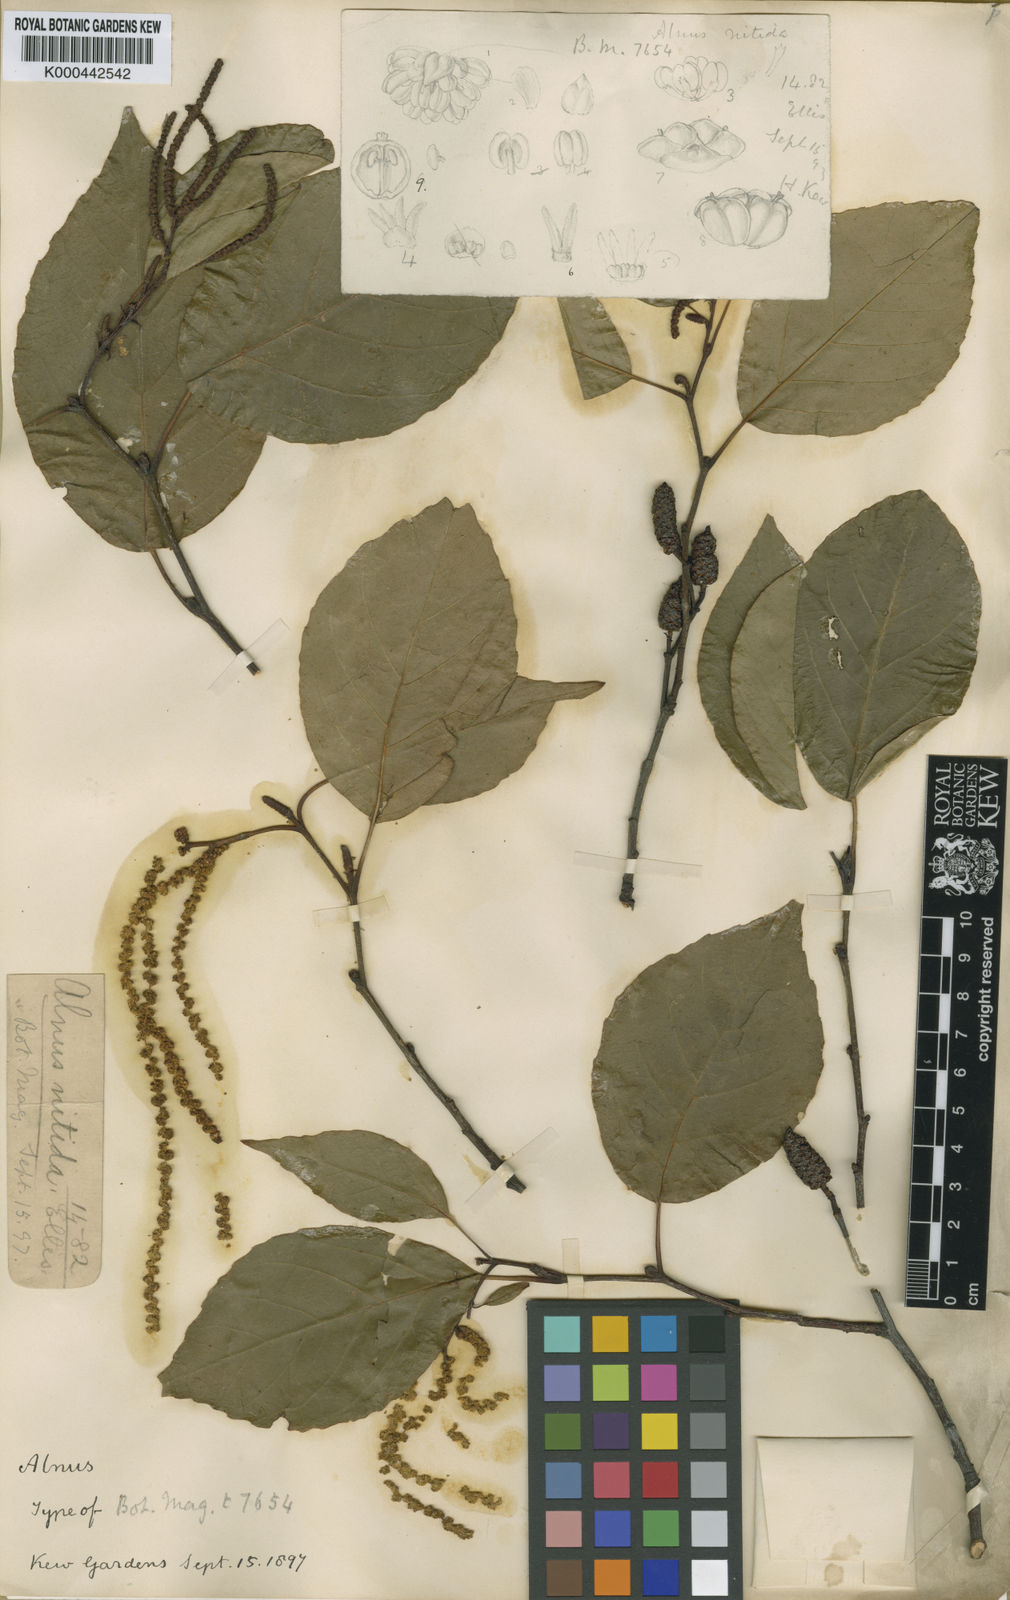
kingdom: Plantae
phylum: Tracheophyta
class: Magnoliopsida
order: Fagales
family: Betulaceae
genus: Alnus
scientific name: Alnus nitida
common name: West himalayan alder
